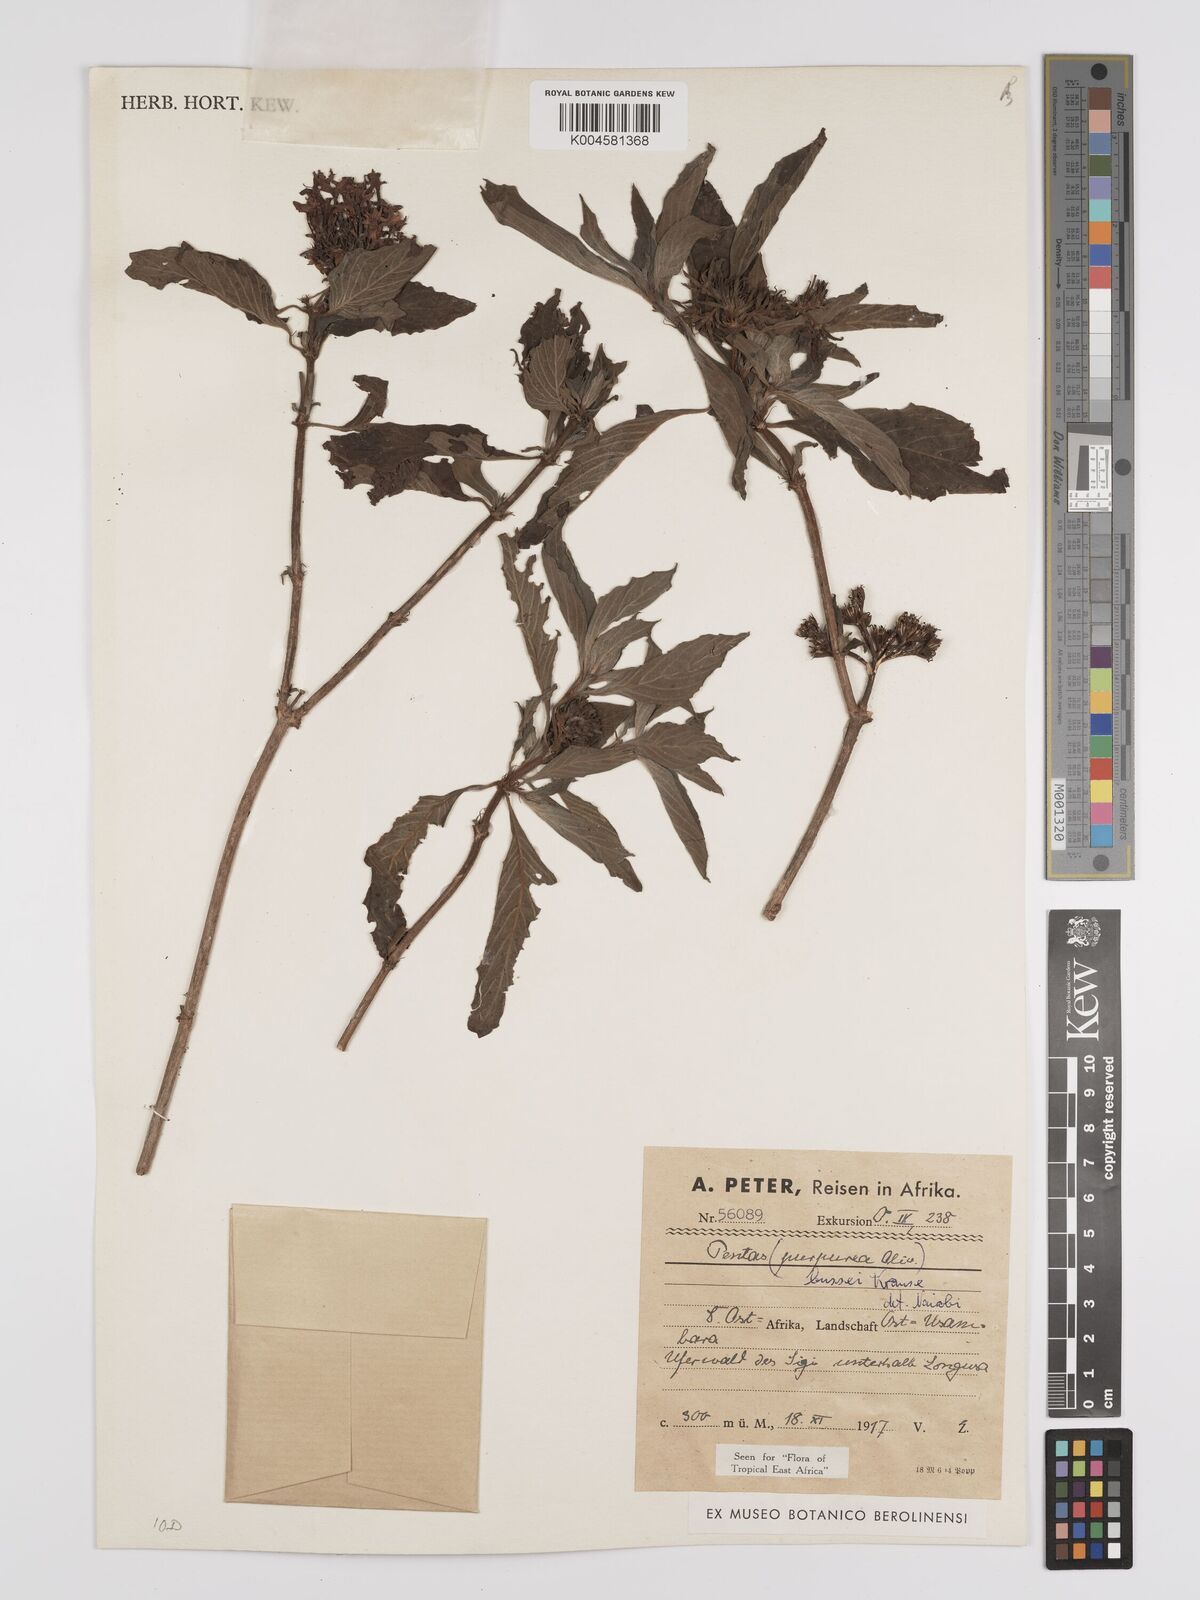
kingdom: Plantae
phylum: Tracheophyta
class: Magnoliopsida
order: Gentianales
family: Rubiaceae
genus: Rhodopentas
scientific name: Rhodopentas bussei
